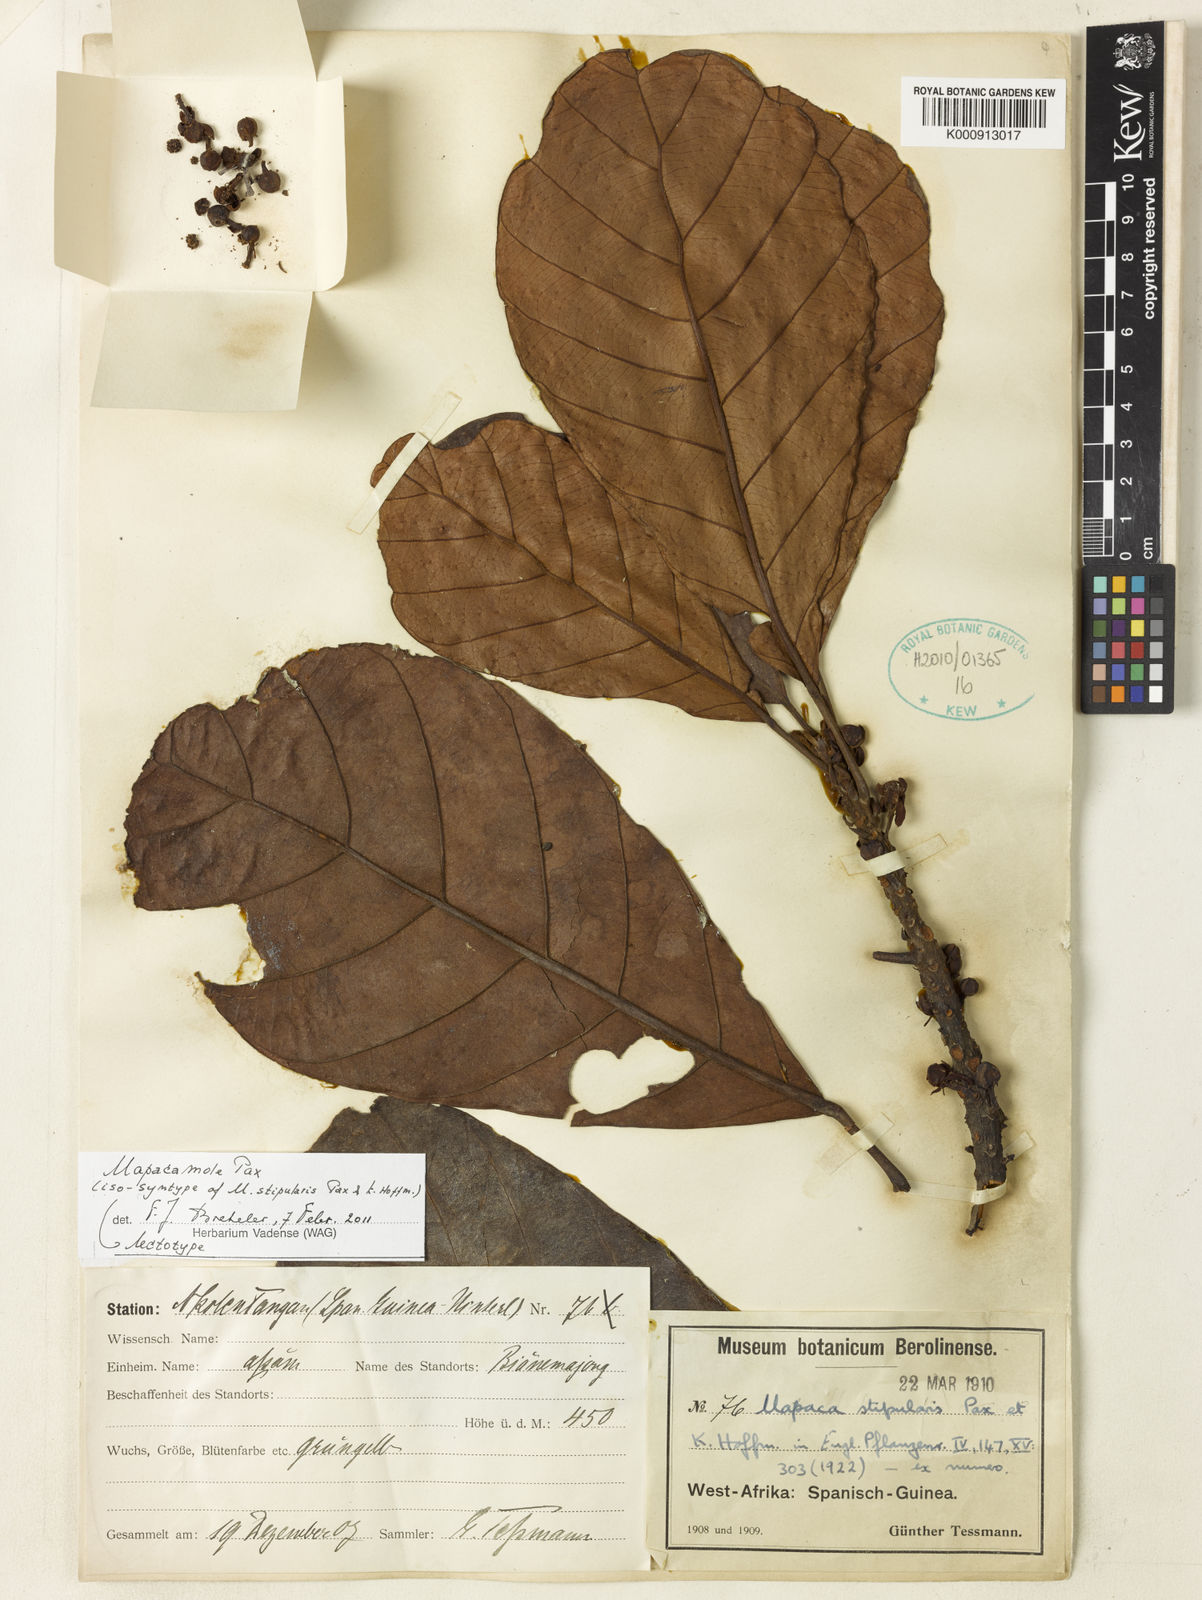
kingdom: Plantae
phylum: Tracheophyta
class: Magnoliopsida
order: Malpighiales
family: Phyllanthaceae
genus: Uapaca
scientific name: Uapaca mole
